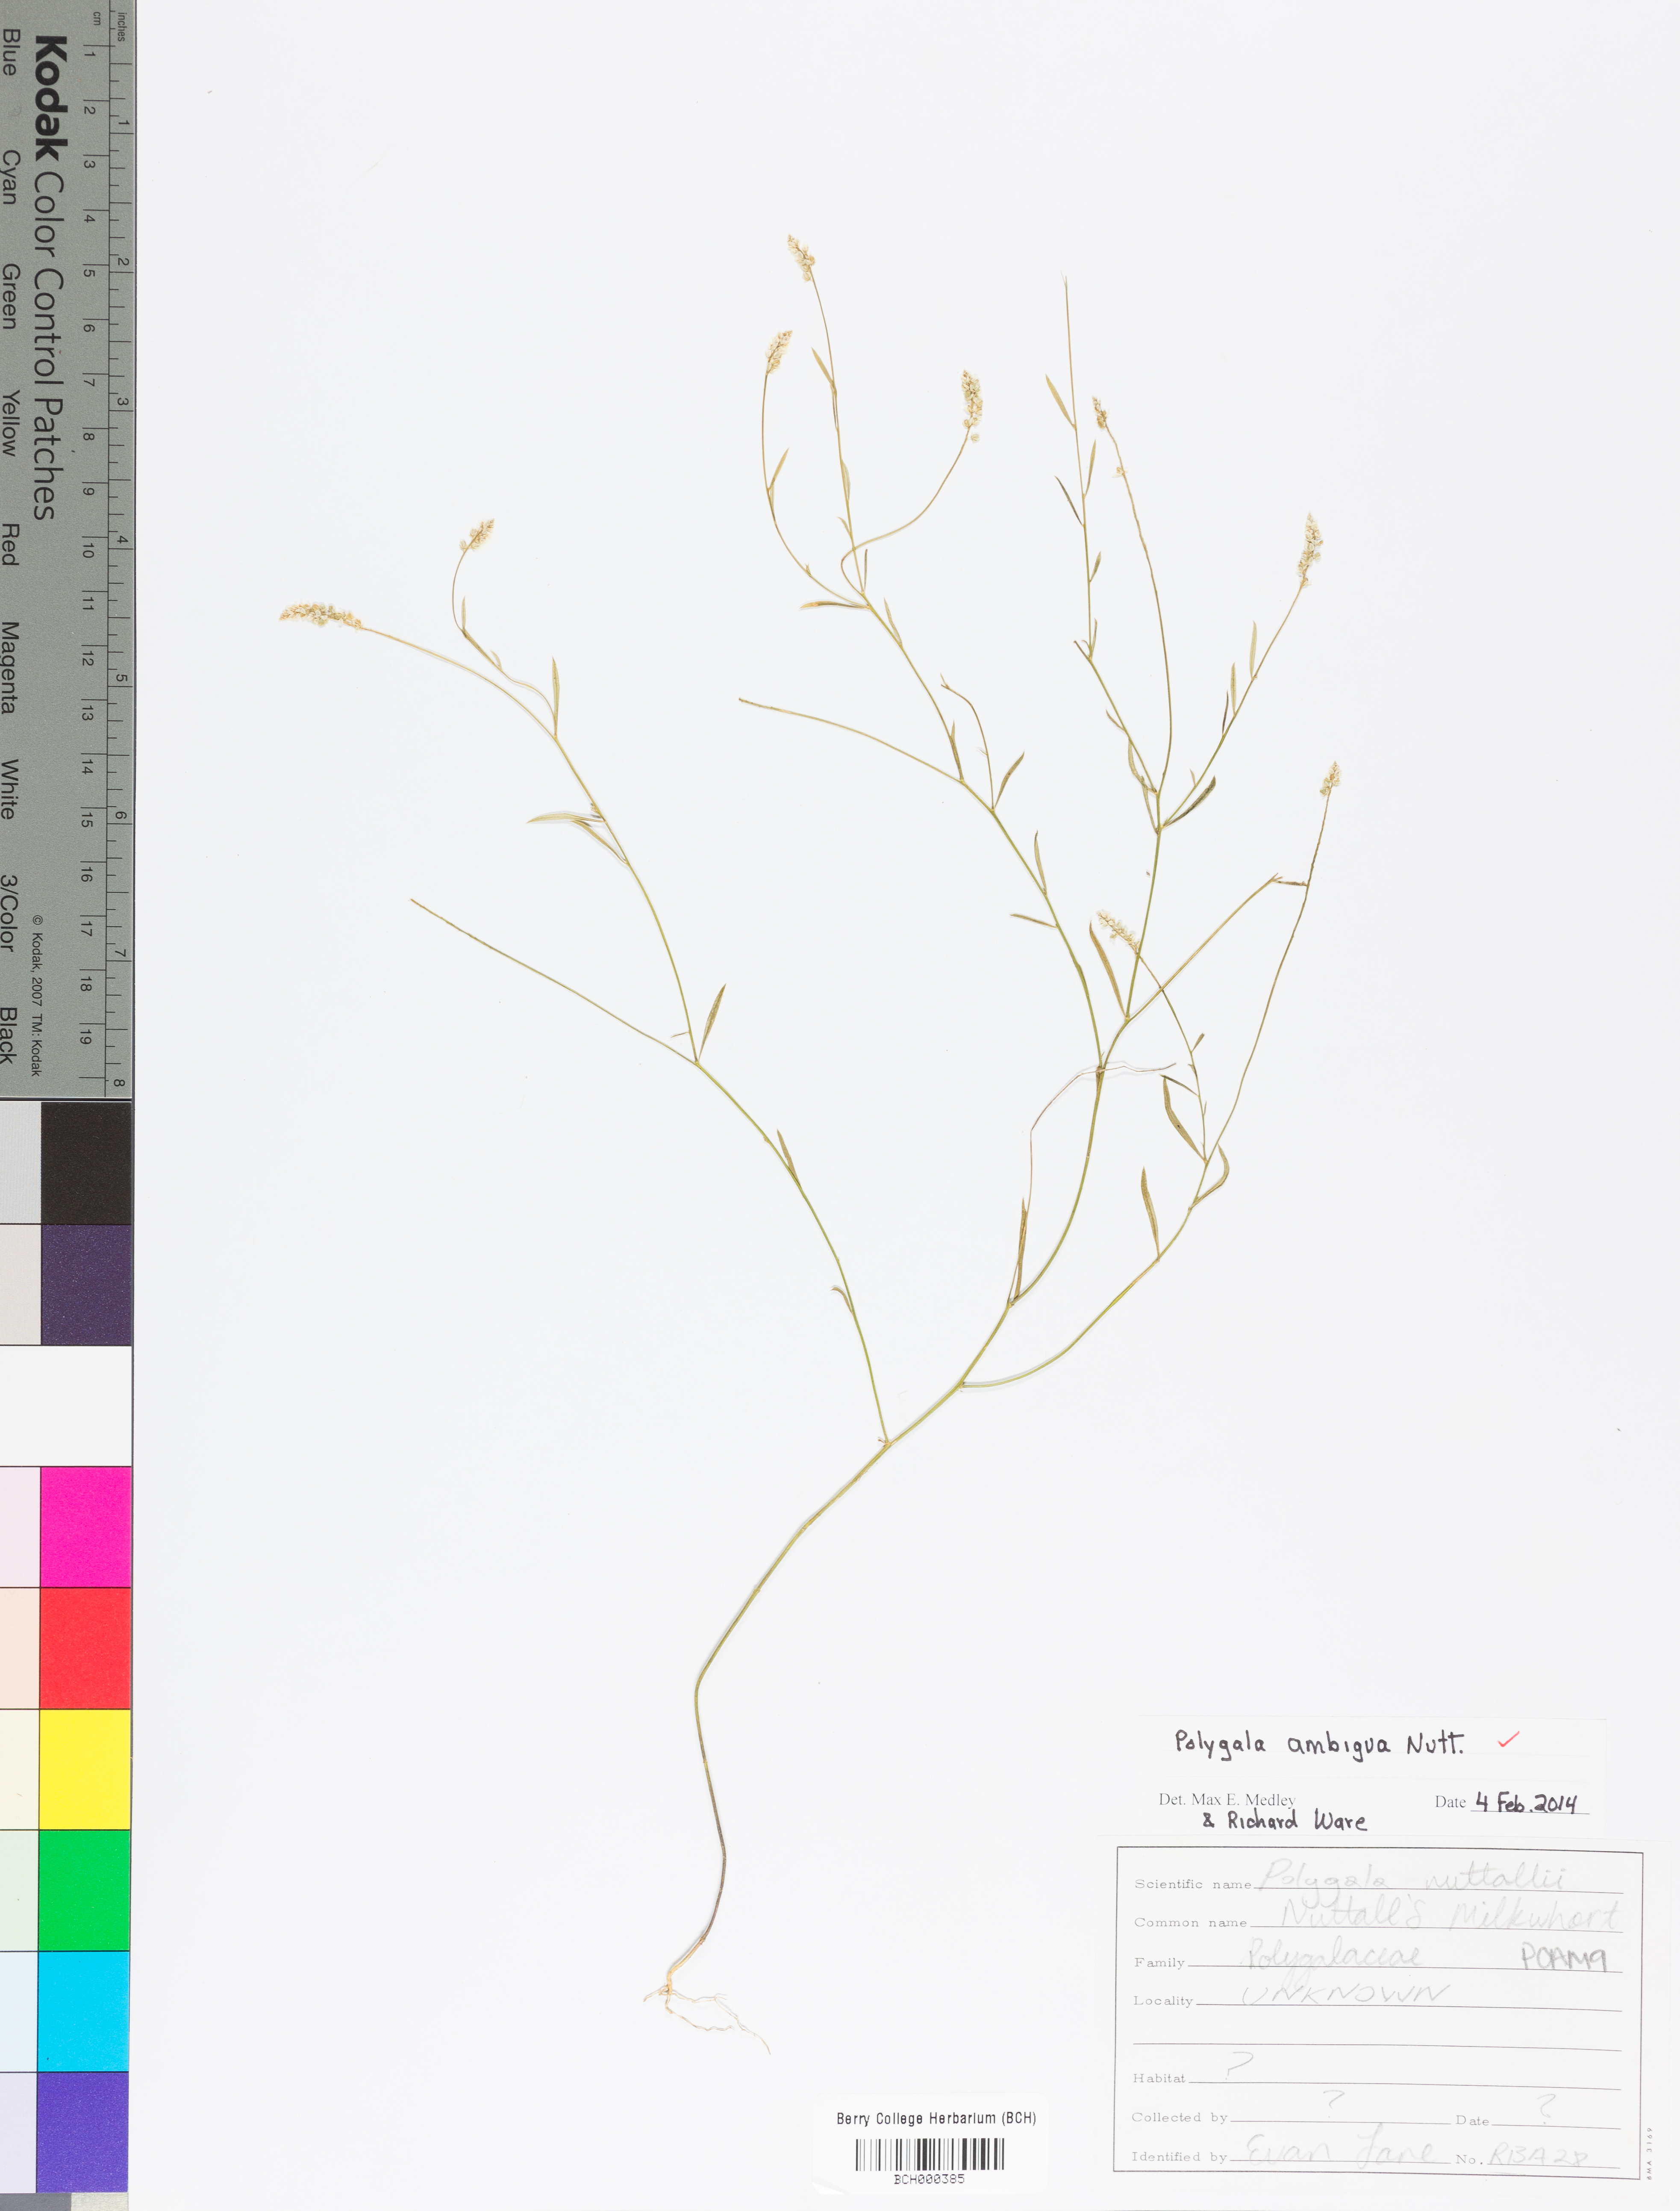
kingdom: Plantae
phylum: Tracheophyta
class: Magnoliopsida
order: Fabales
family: Polygalaceae
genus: Polygala
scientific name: Polygala ambigua
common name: Alternate milkwort
